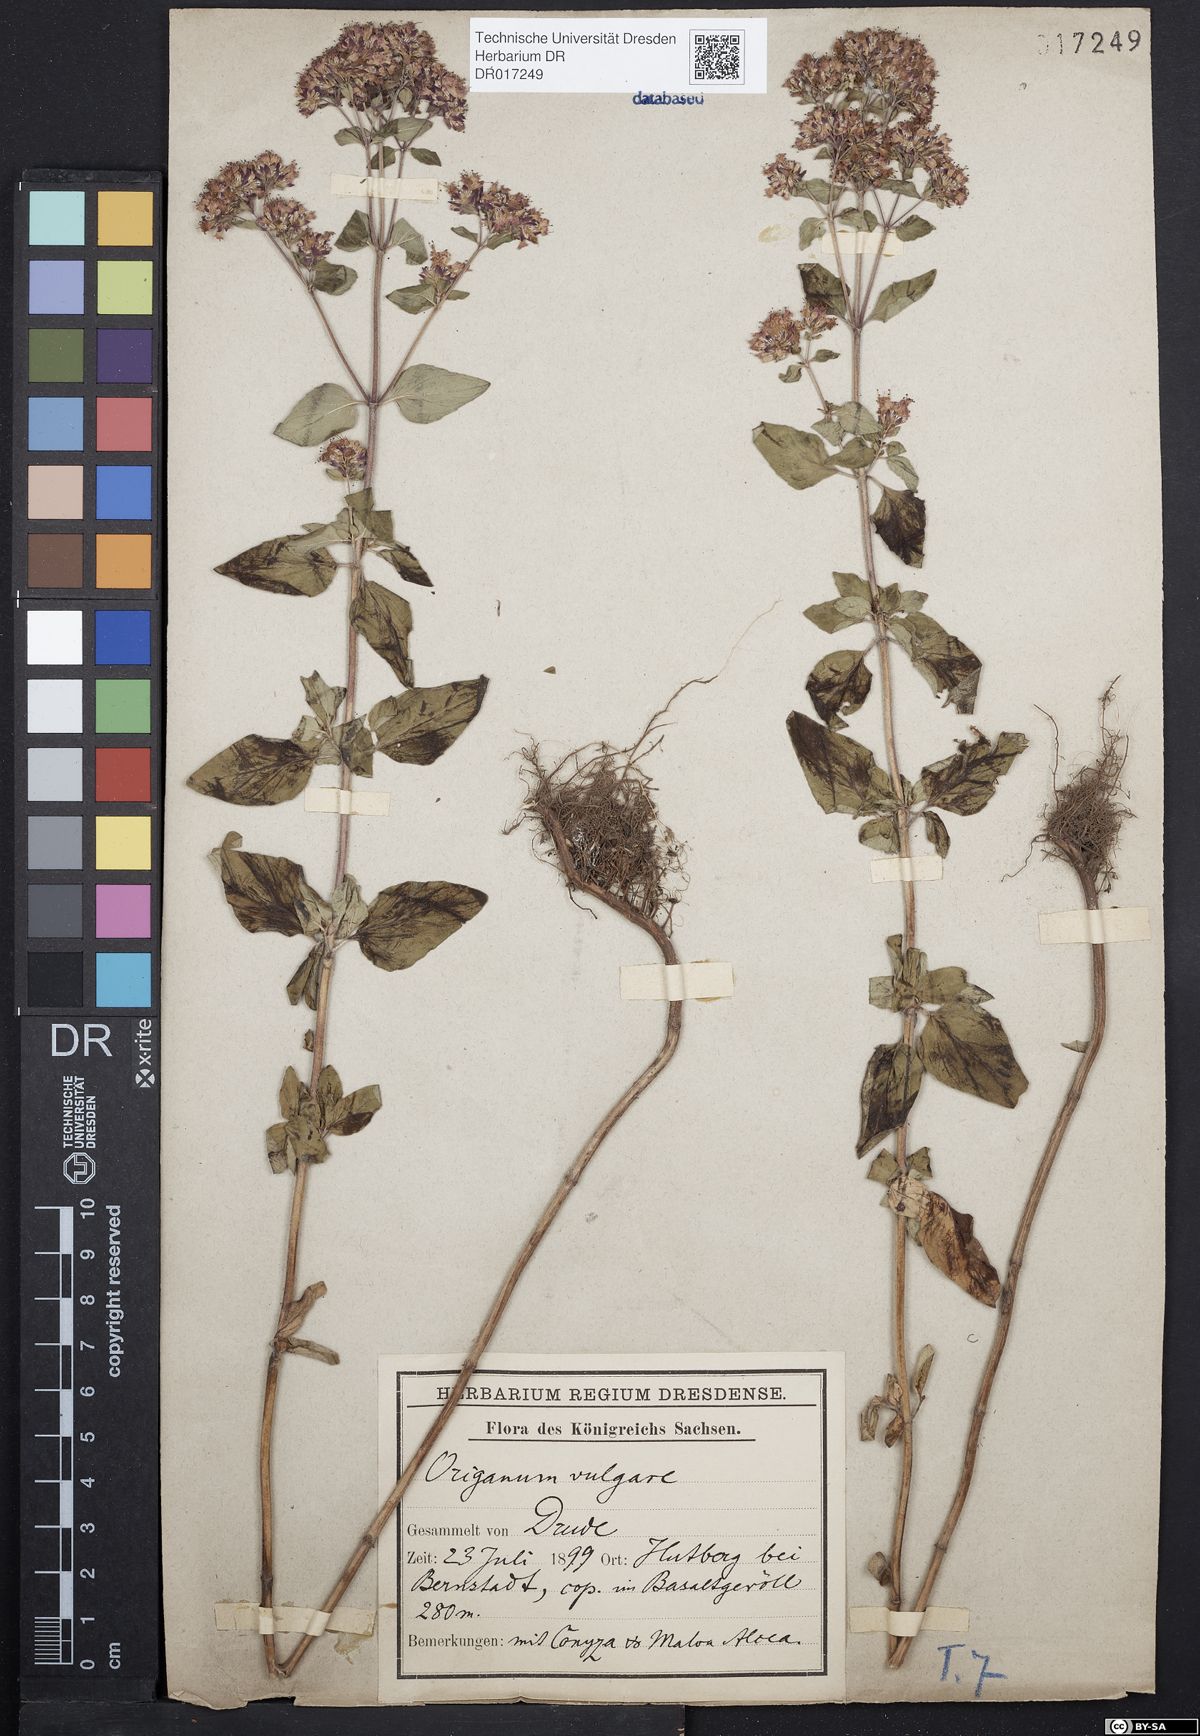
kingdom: Plantae
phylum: Tracheophyta
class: Magnoliopsida
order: Lamiales
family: Lamiaceae
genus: Origanum
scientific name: Origanum vulgare
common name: Wild marjoram
